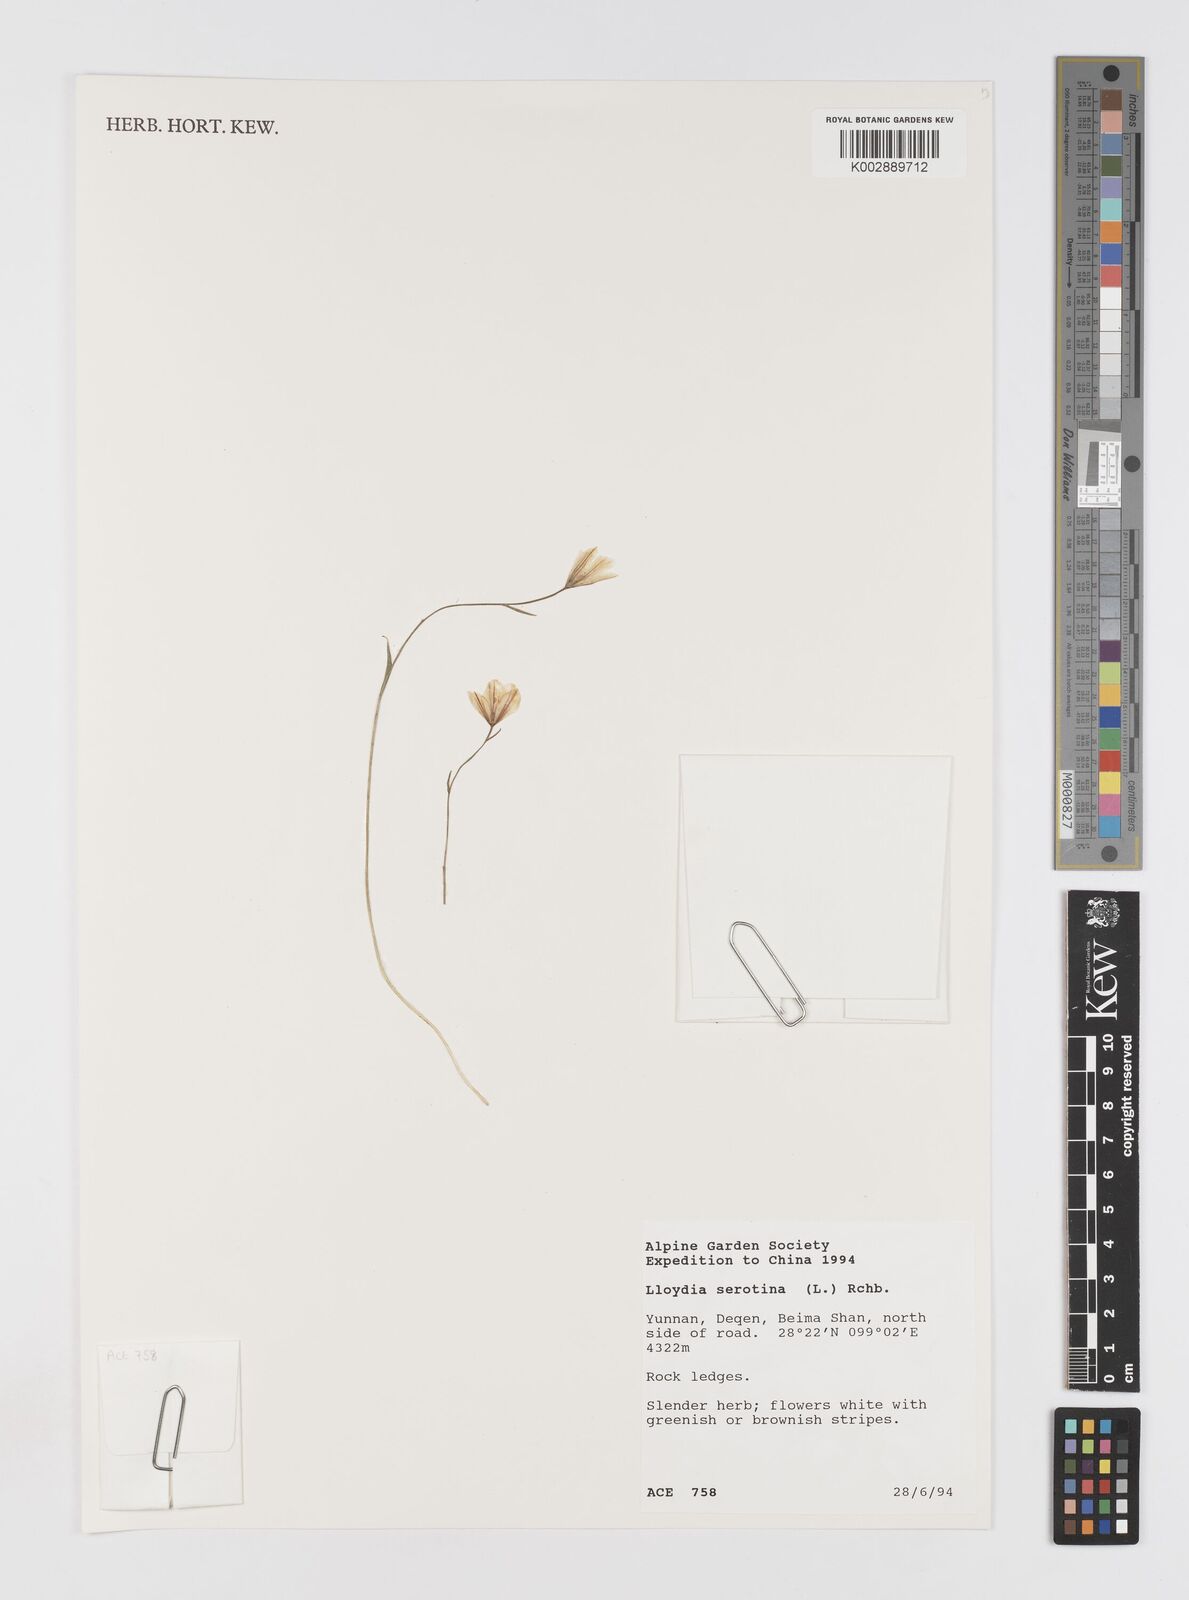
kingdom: Plantae
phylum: Tracheophyta
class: Liliopsida
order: Liliales
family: Liliaceae
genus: Gagea
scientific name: Gagea serotina
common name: Snowdon lily
